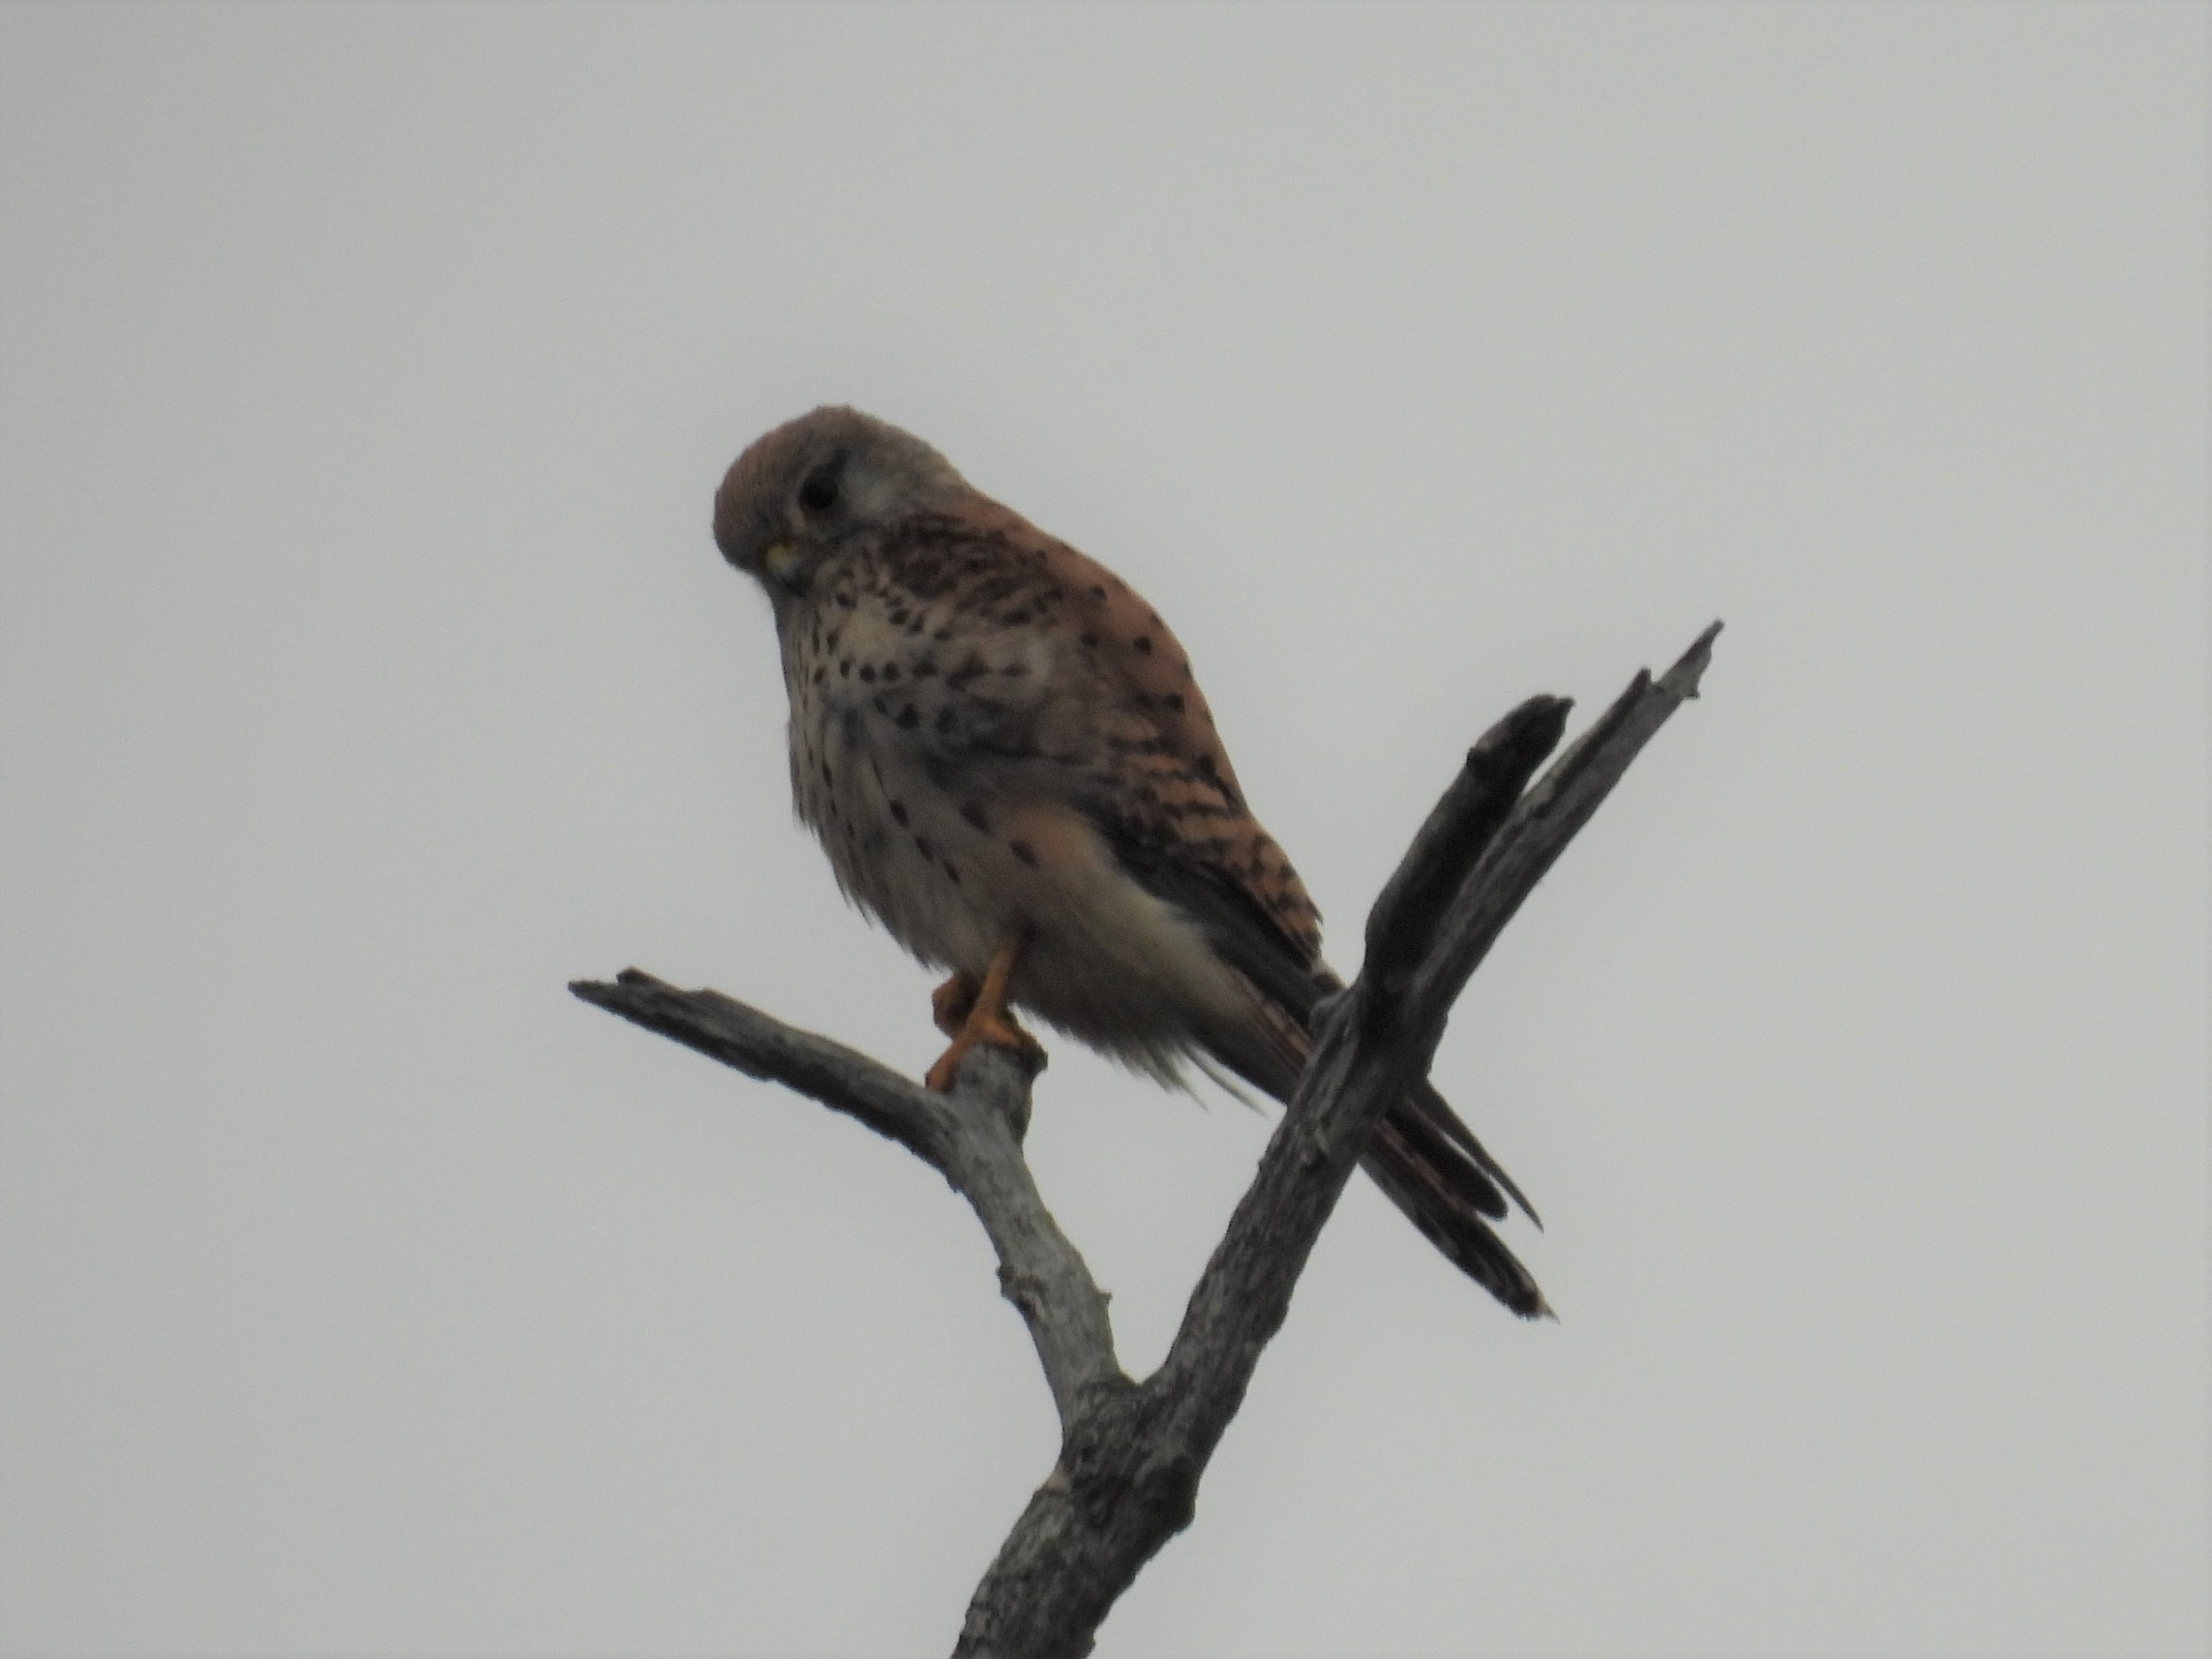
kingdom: Animalia
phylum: Chordata
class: Aves
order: Falconiformes
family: Falconidae
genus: Falco
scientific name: Falco tinnunculus
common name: Tårnfalk
